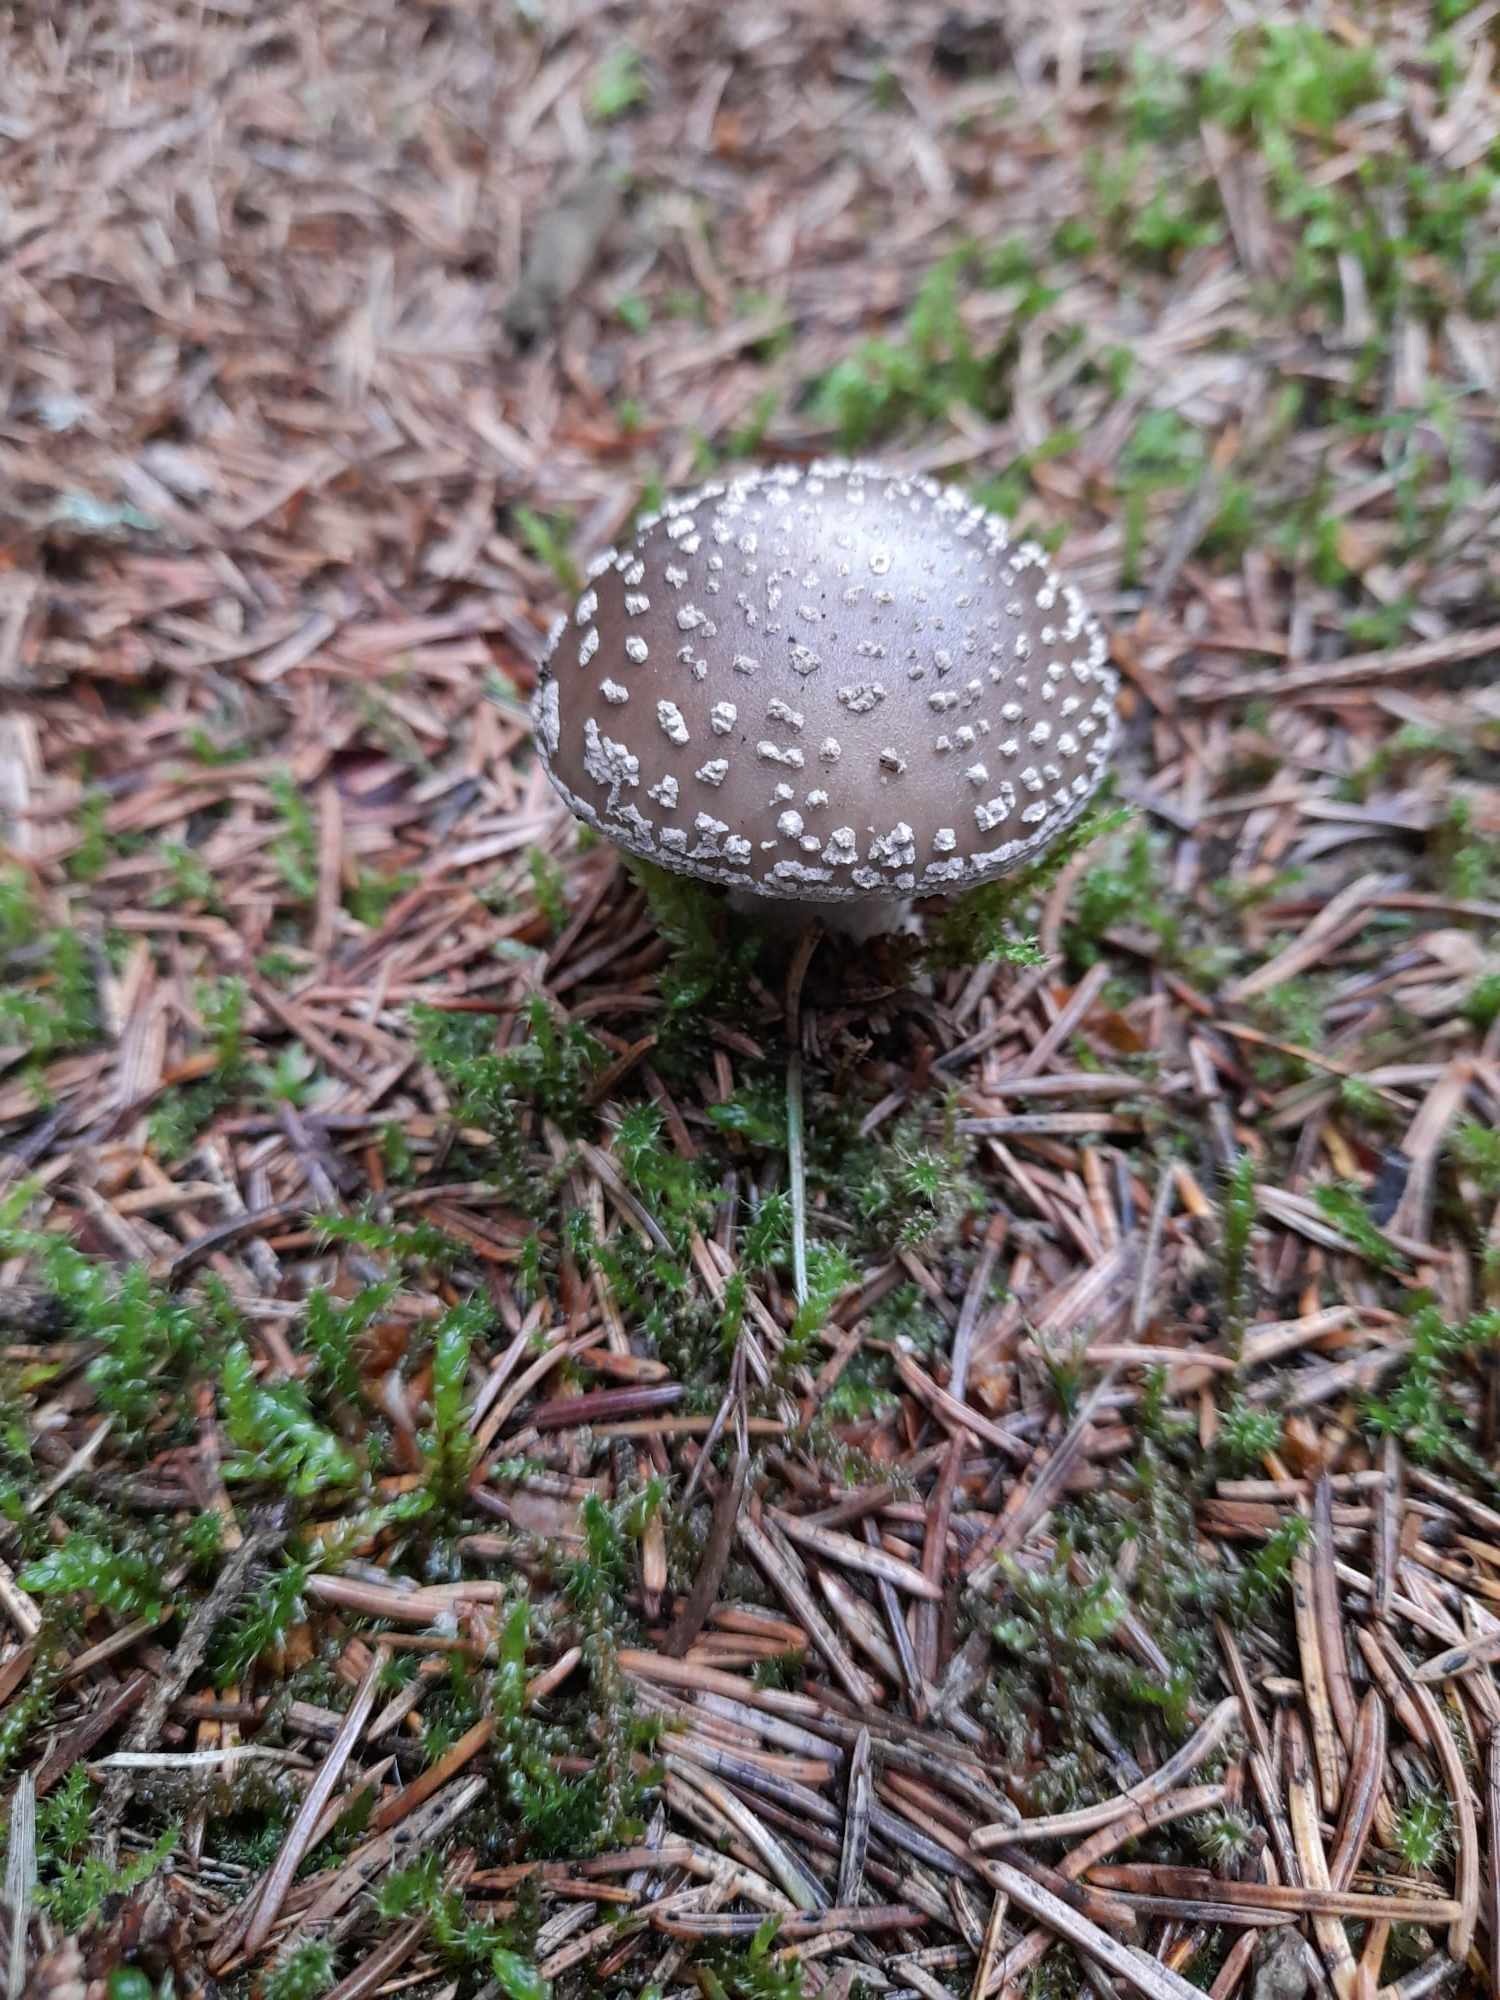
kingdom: Fungi
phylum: Basidiomycota
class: Agaricomycetes
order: Agaricales
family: Amanitaceae
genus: Amanita
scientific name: Amanita
